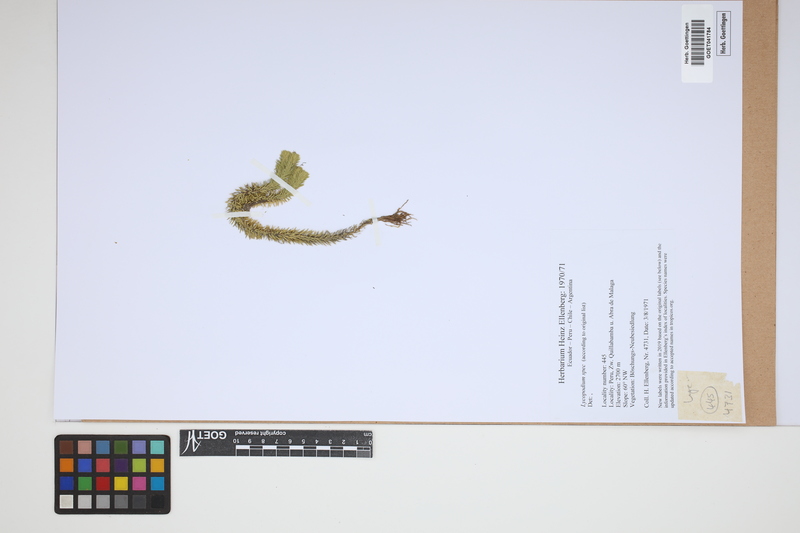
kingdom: Plantae
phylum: Tracheophyta
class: Lycopodiopsida
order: Lycopodiales
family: Lycopodiaceae
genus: Lycopodium
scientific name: Lycopodium
